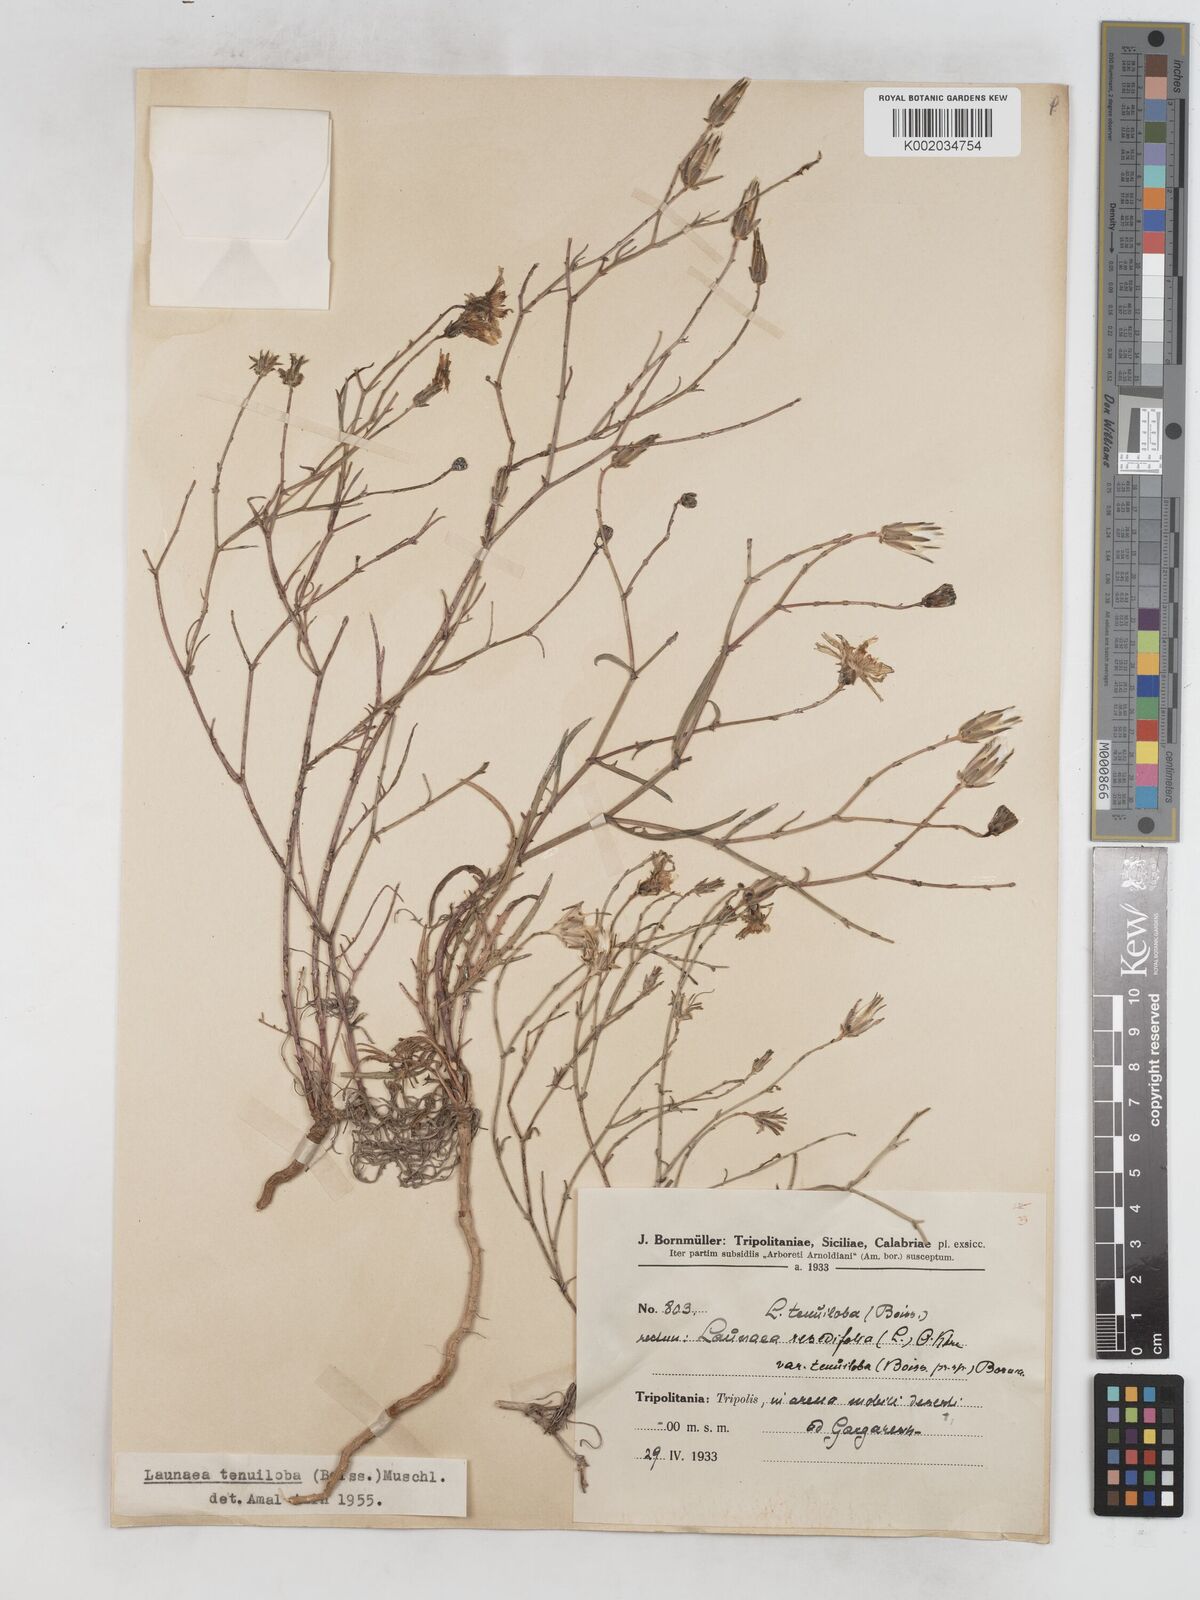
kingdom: Plantae
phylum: Tracheophyta
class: Magnoliopsida
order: Asterales
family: Asteraceae
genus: Launaea
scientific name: Launaea fragilis
